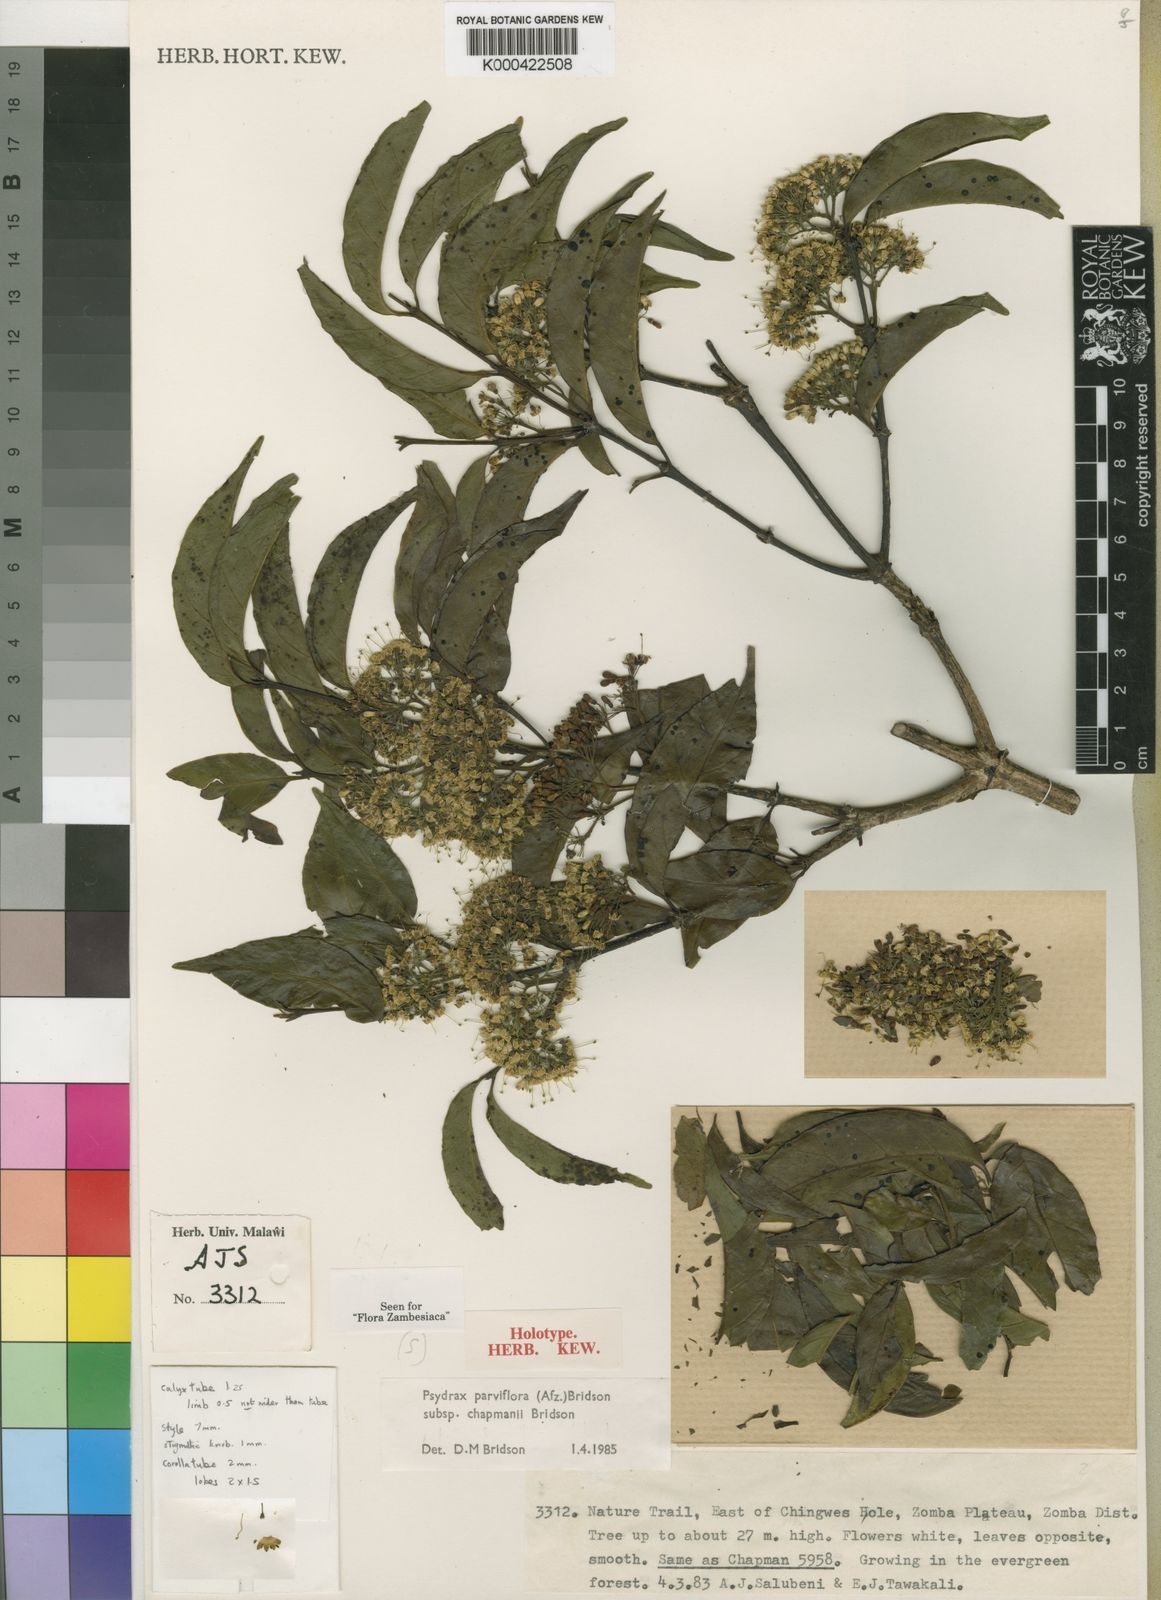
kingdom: Plantae
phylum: Tracheophyta
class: Magnoliopsida
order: Gentianales
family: Rubiaceae
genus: Psydrax
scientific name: Psydrax parviflorus
